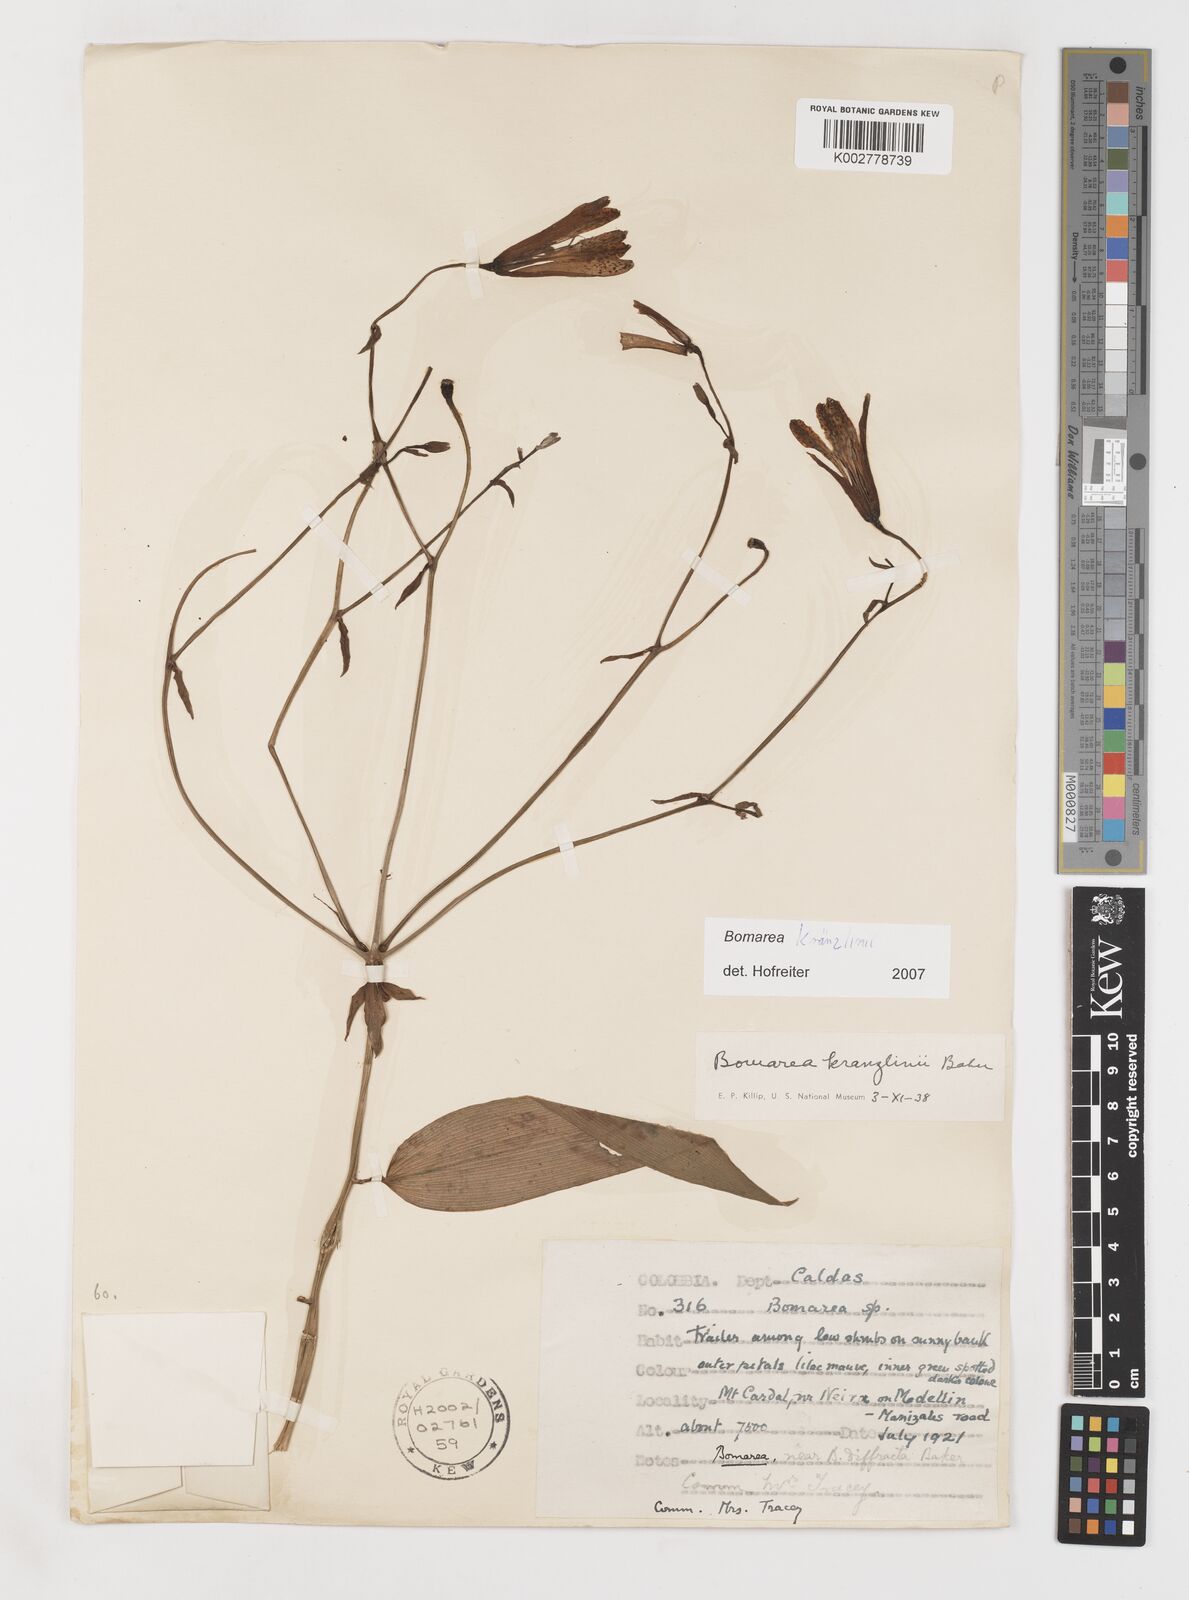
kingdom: Plantae
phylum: Tracheophyta
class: Liliopsida
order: Liliales
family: Alstroemeriaceae
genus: Bomarea
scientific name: Bomarea kraenzlinii
